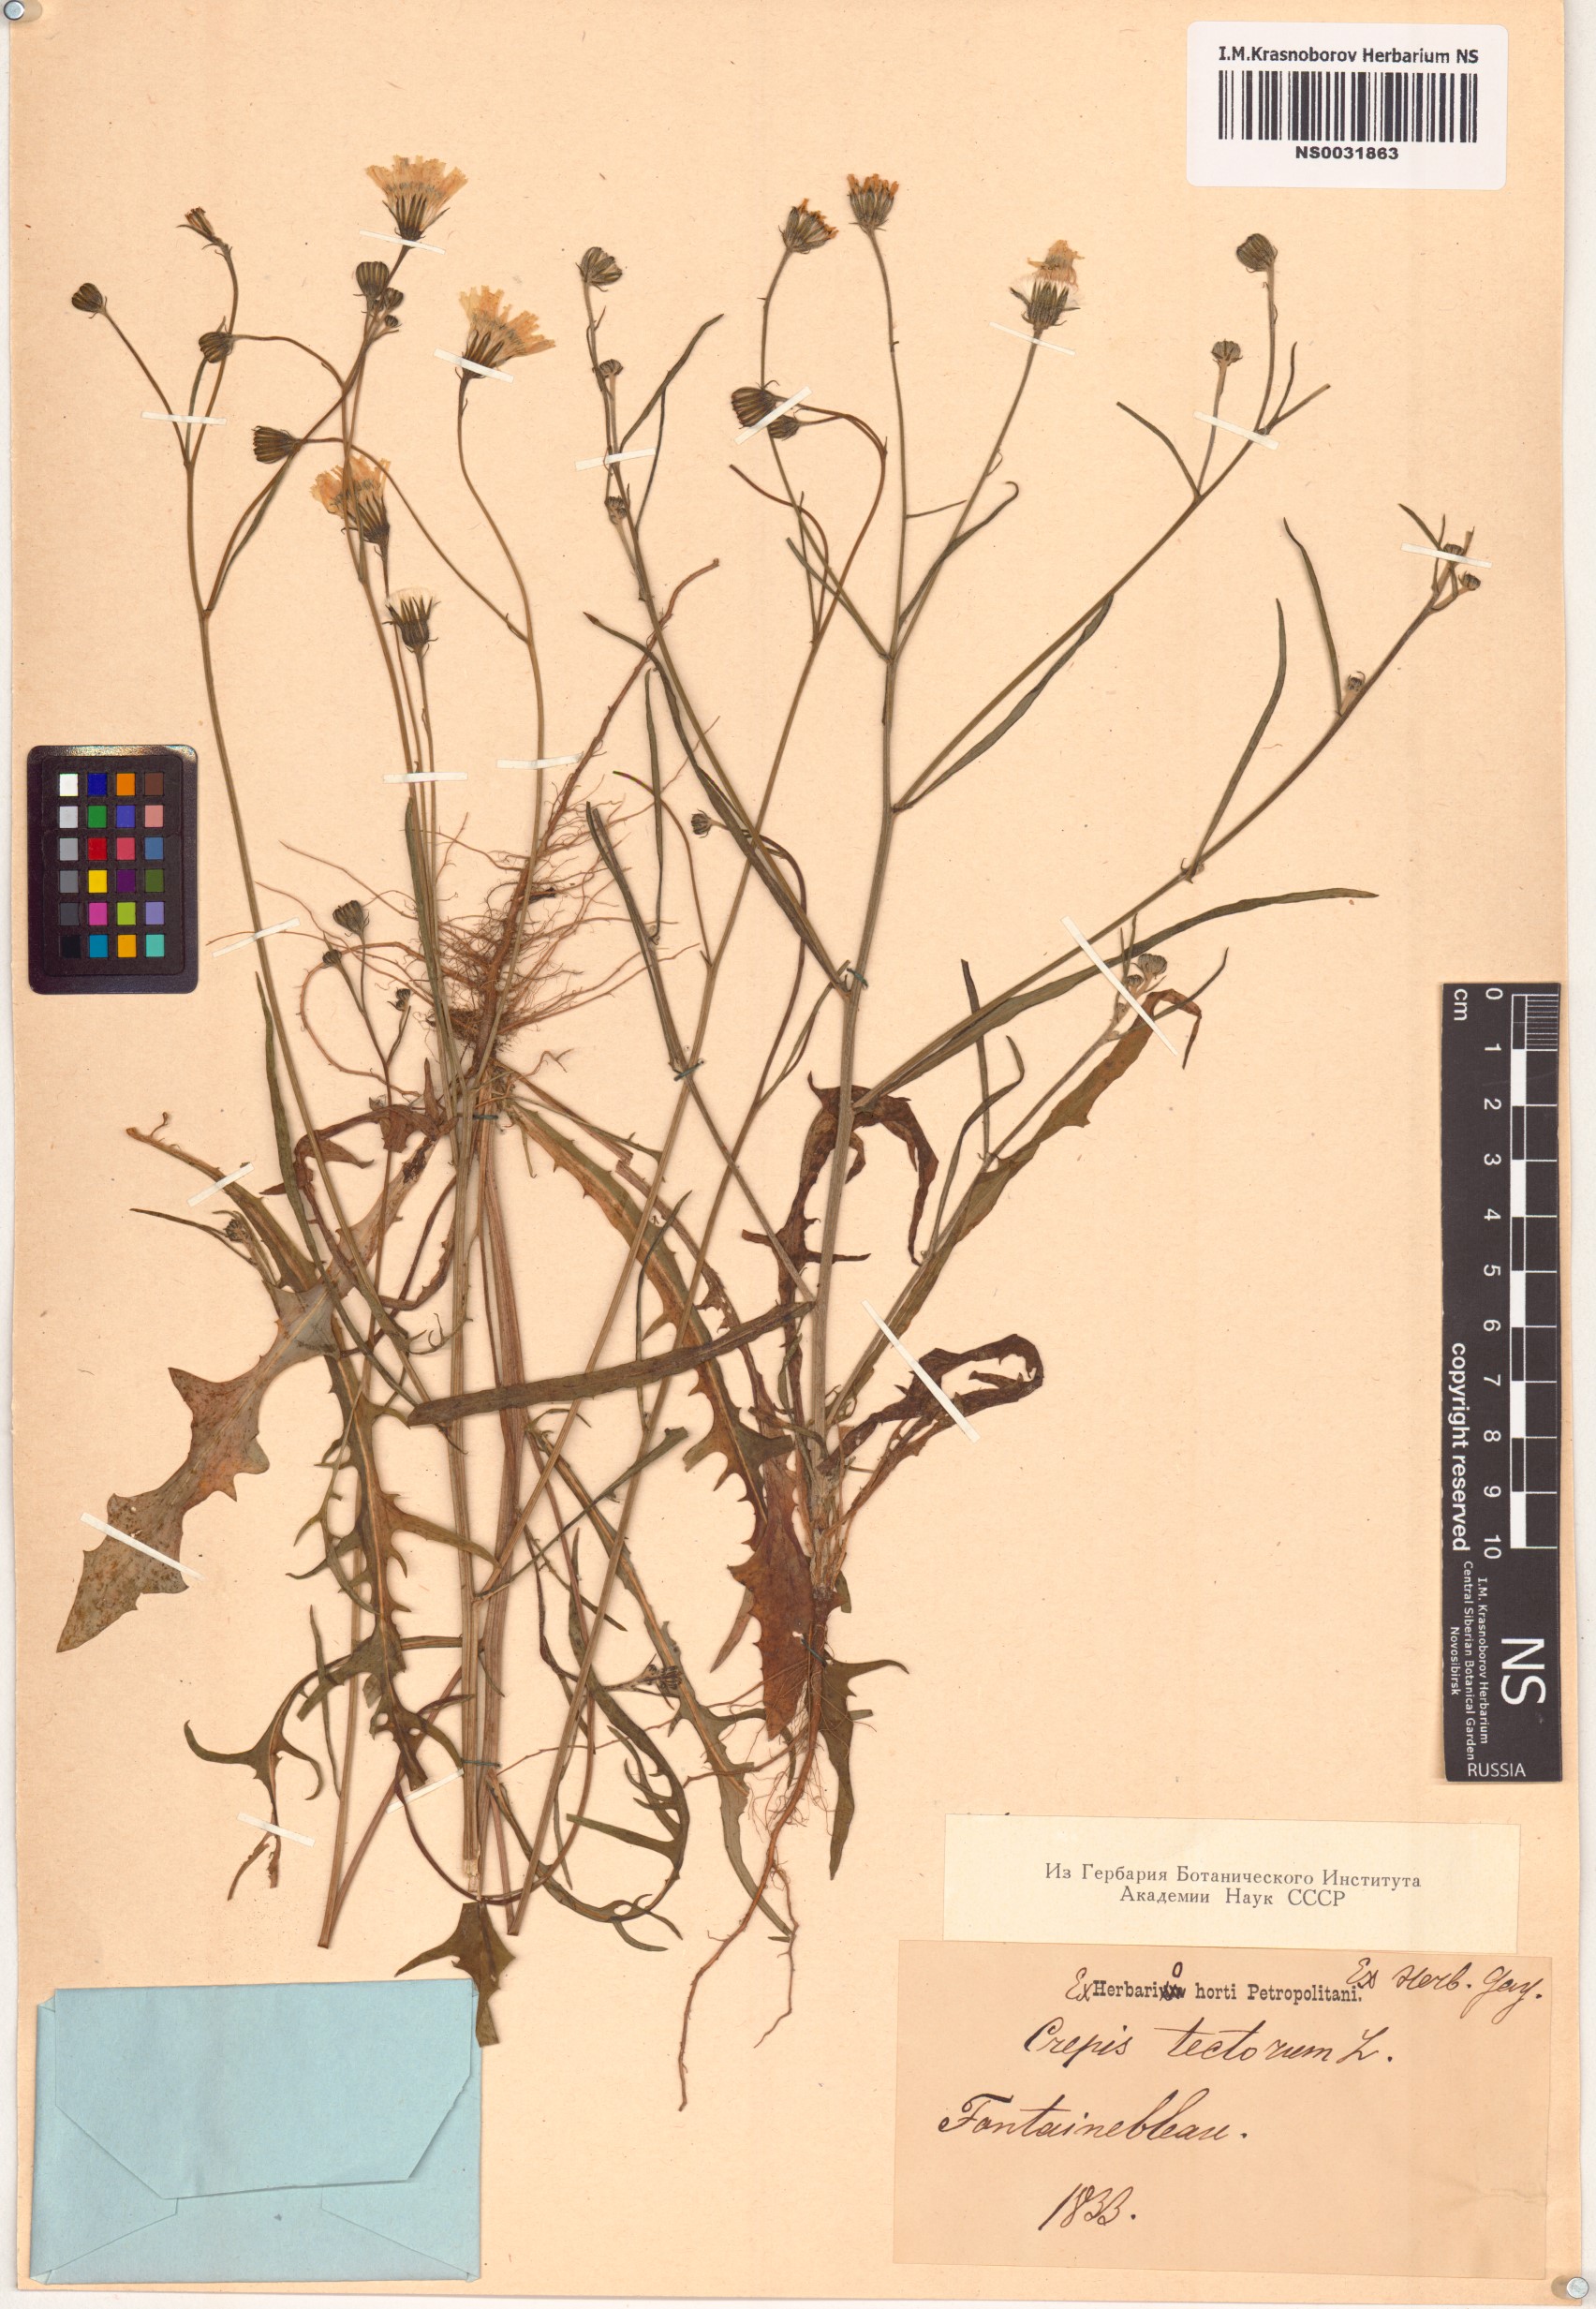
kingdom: Plantae
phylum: Tracheophyta
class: Magnoliopsida
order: Asterales
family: Asteraceae
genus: Crepis
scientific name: Crepis tectorum
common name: Narrow-leaved hawk's-beard
